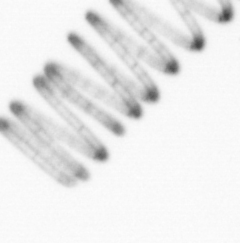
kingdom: Chromista
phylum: Ochrophyta
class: Bacillariophyceae
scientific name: Bacillariophyceae
